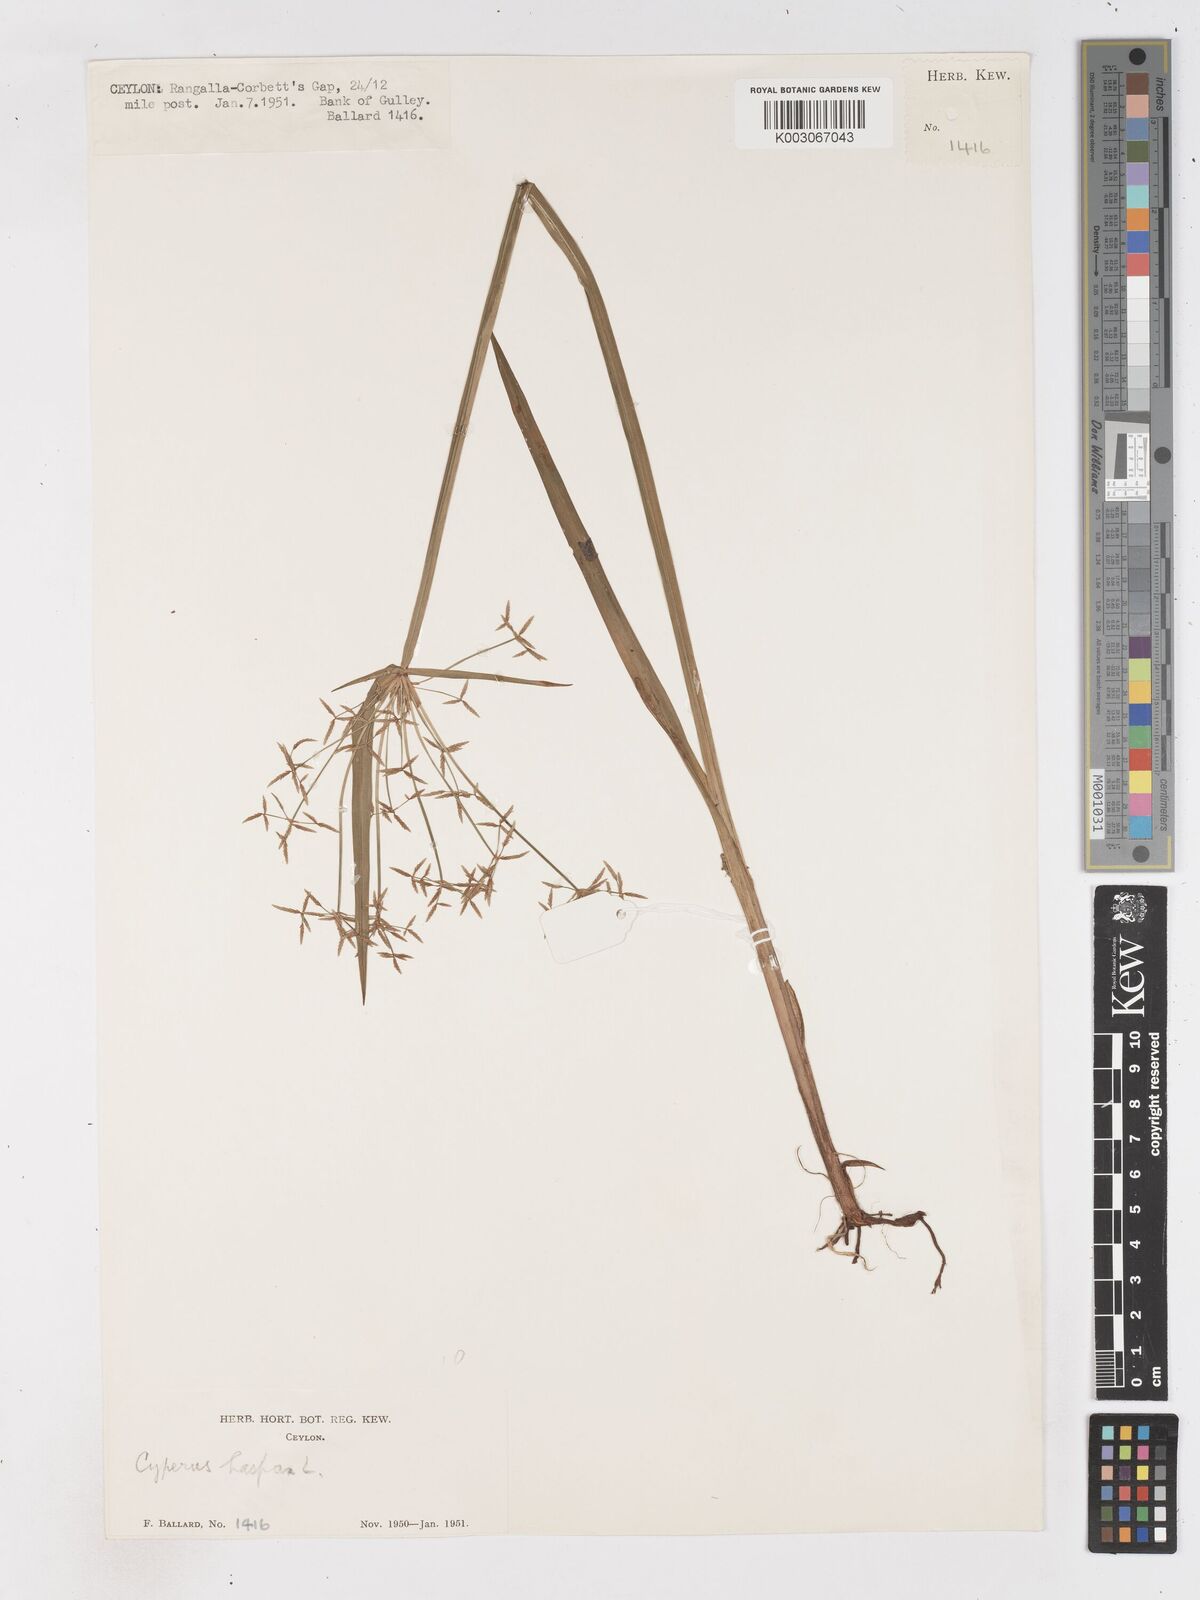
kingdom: Plantae
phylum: Tracheophyta
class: Liliopsida
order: Poales
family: Cyperaceae
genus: Cyperus
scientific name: Cyperus haspan
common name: Haspan flatsedge
